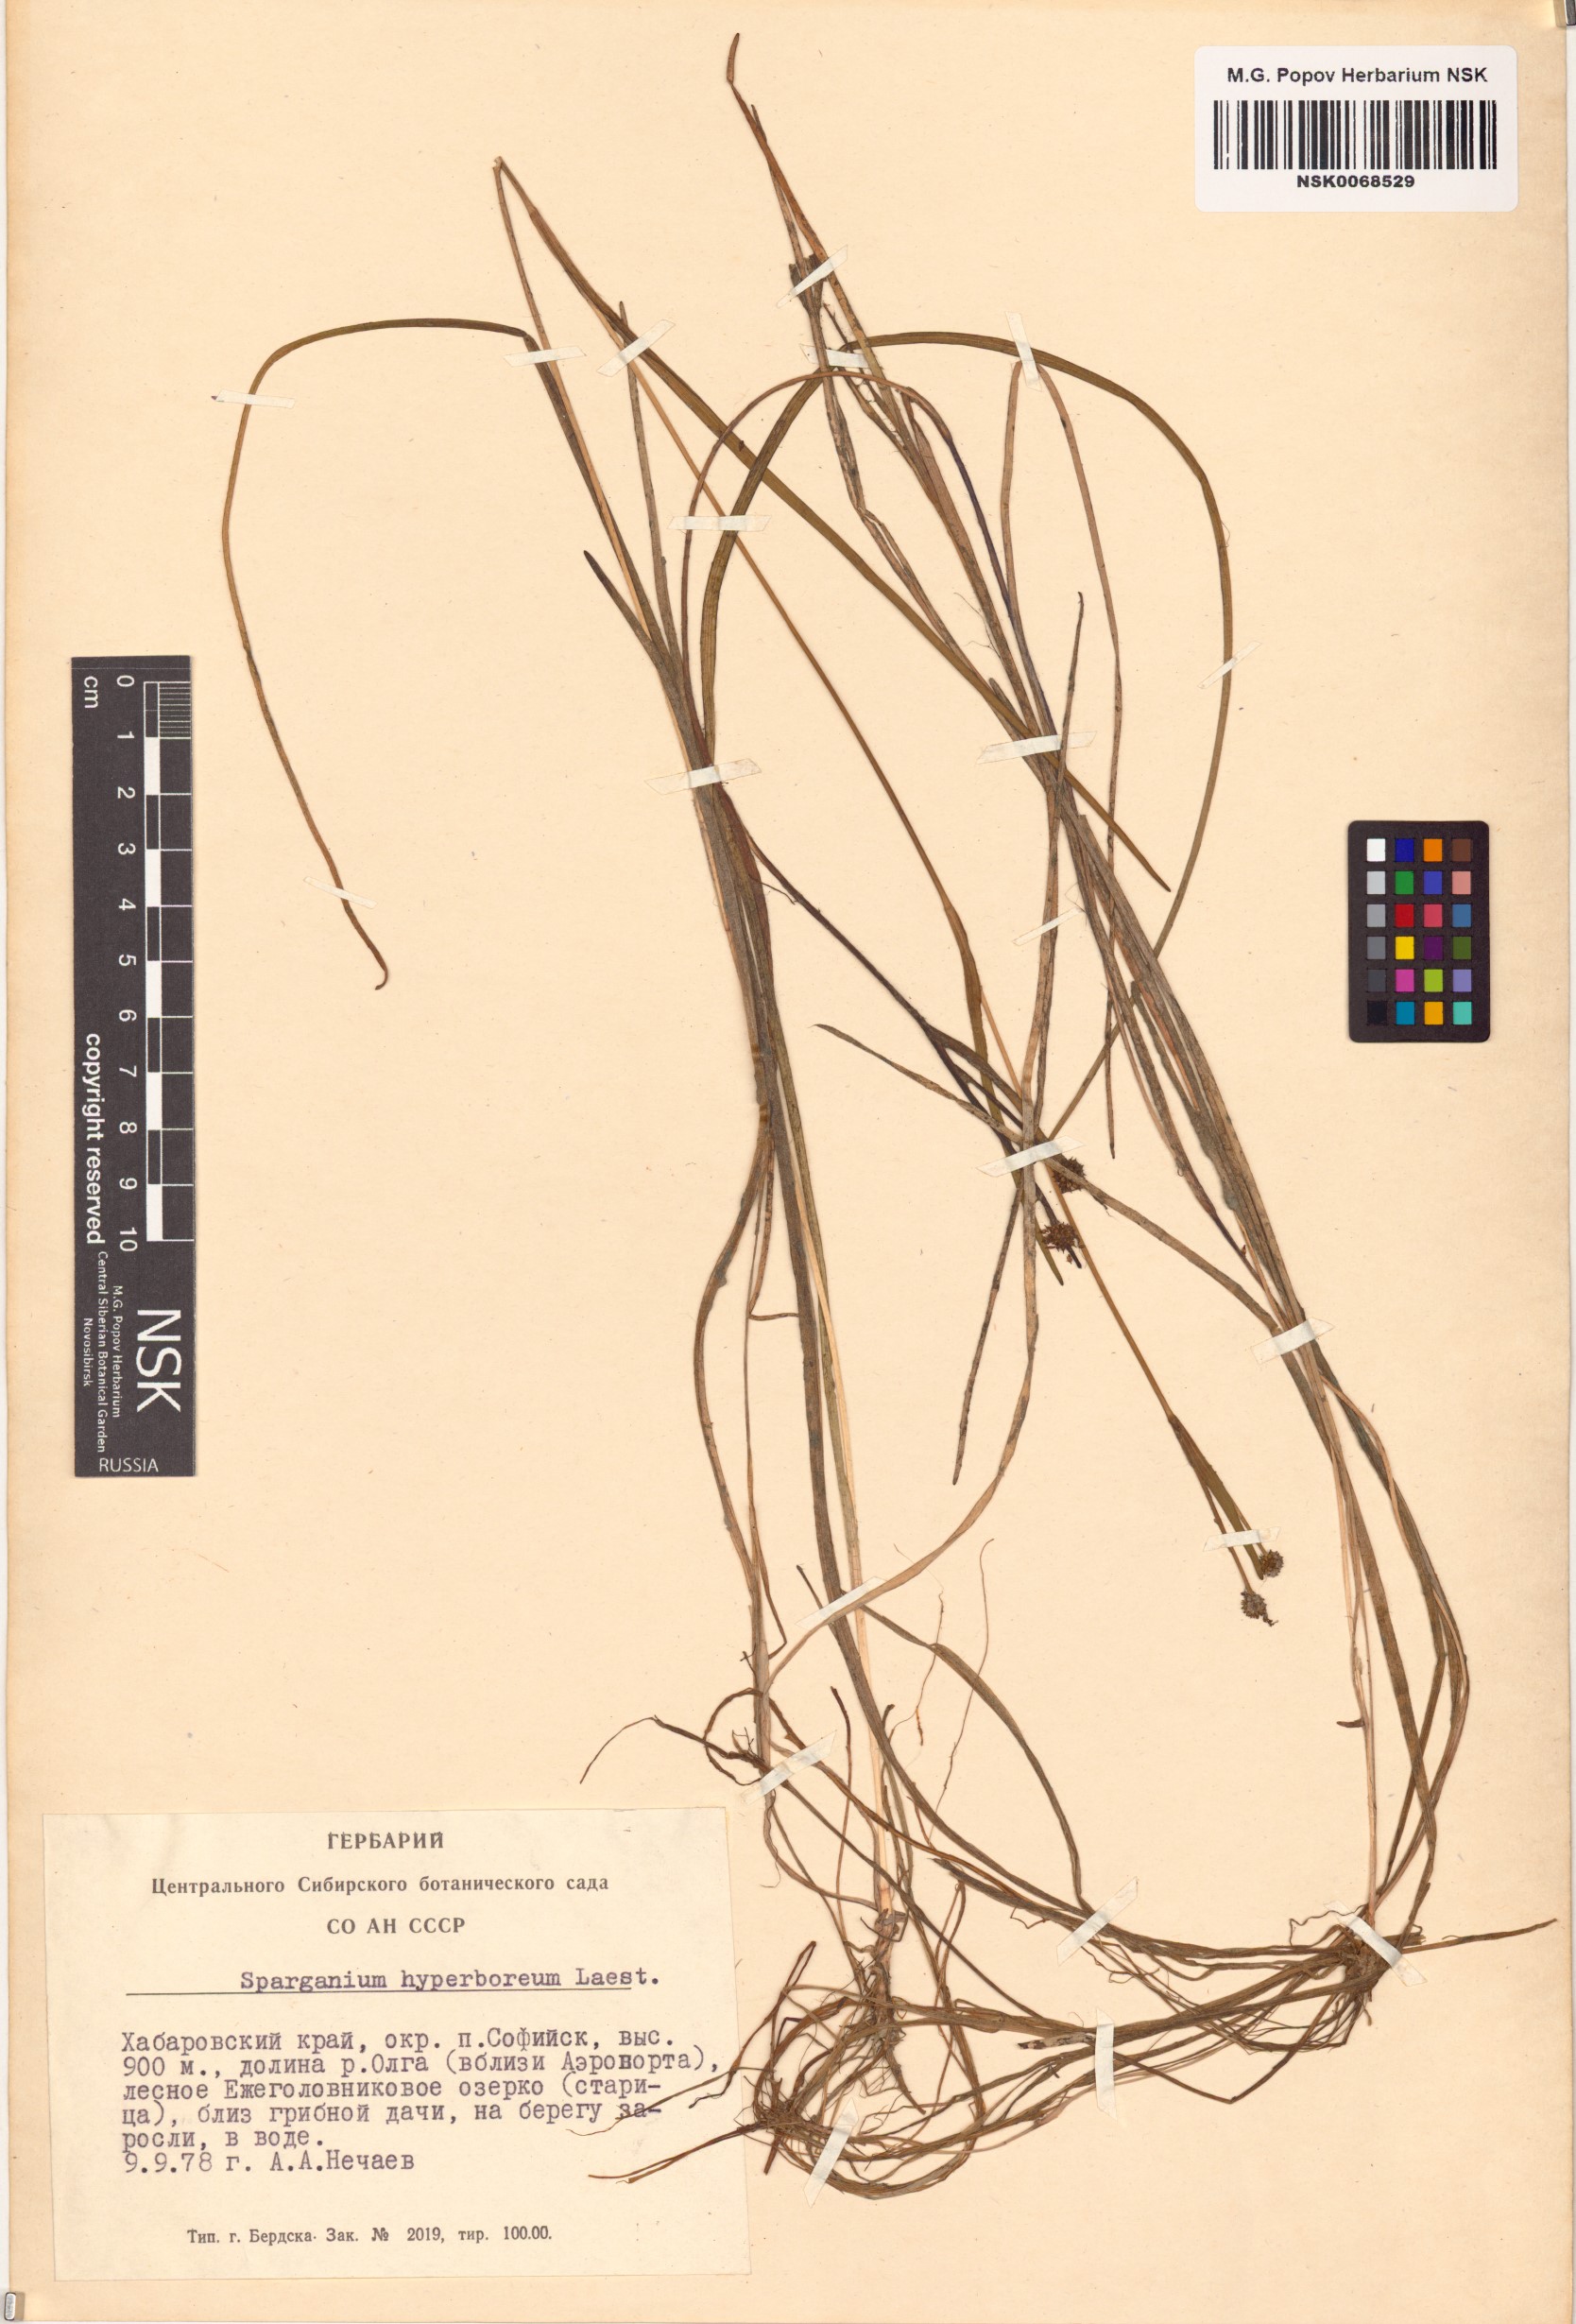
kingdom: Plantae
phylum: Tracheophyta
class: Liliopsida
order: Poales
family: Typhaceae
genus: Sparganium
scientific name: Sparganium hyperboreum
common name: Arctic burreed
